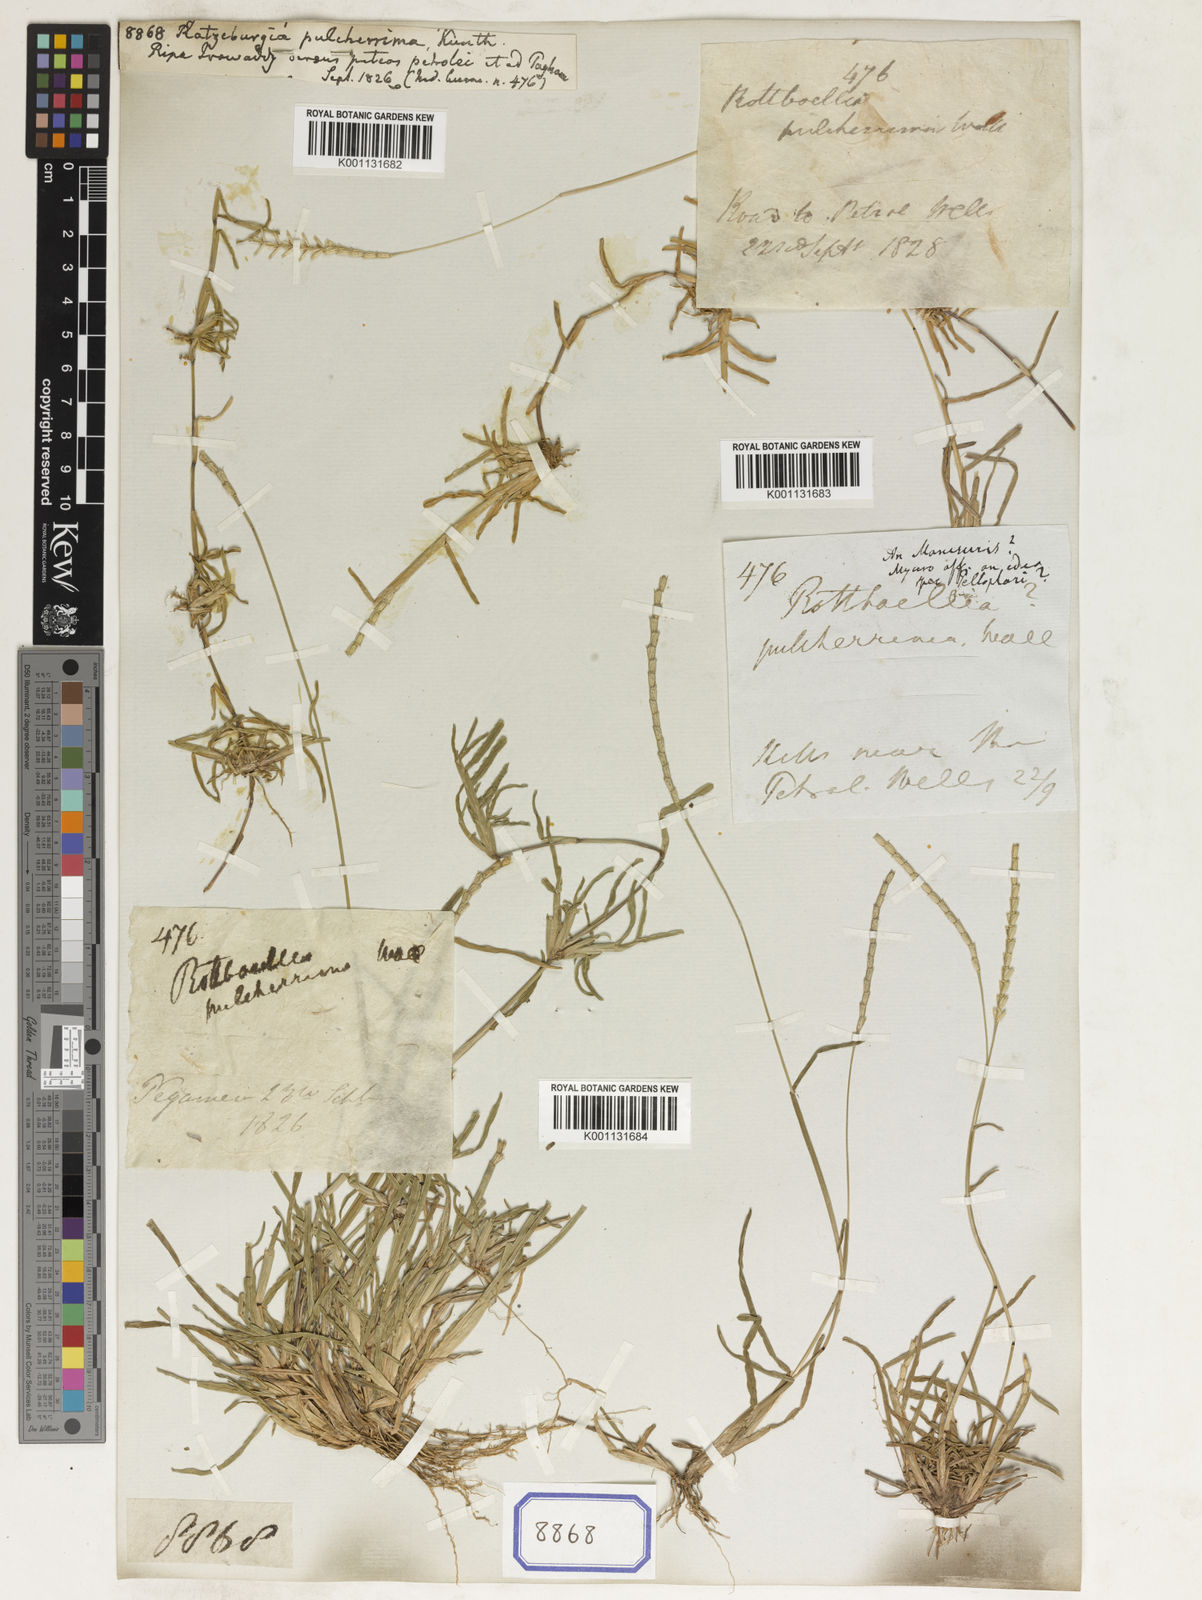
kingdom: Plantae
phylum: Tracheophyta
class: Liliopsida
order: Poales
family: Poaceae
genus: Ratzeburgia
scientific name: Ratzeburgia pulcherrima
